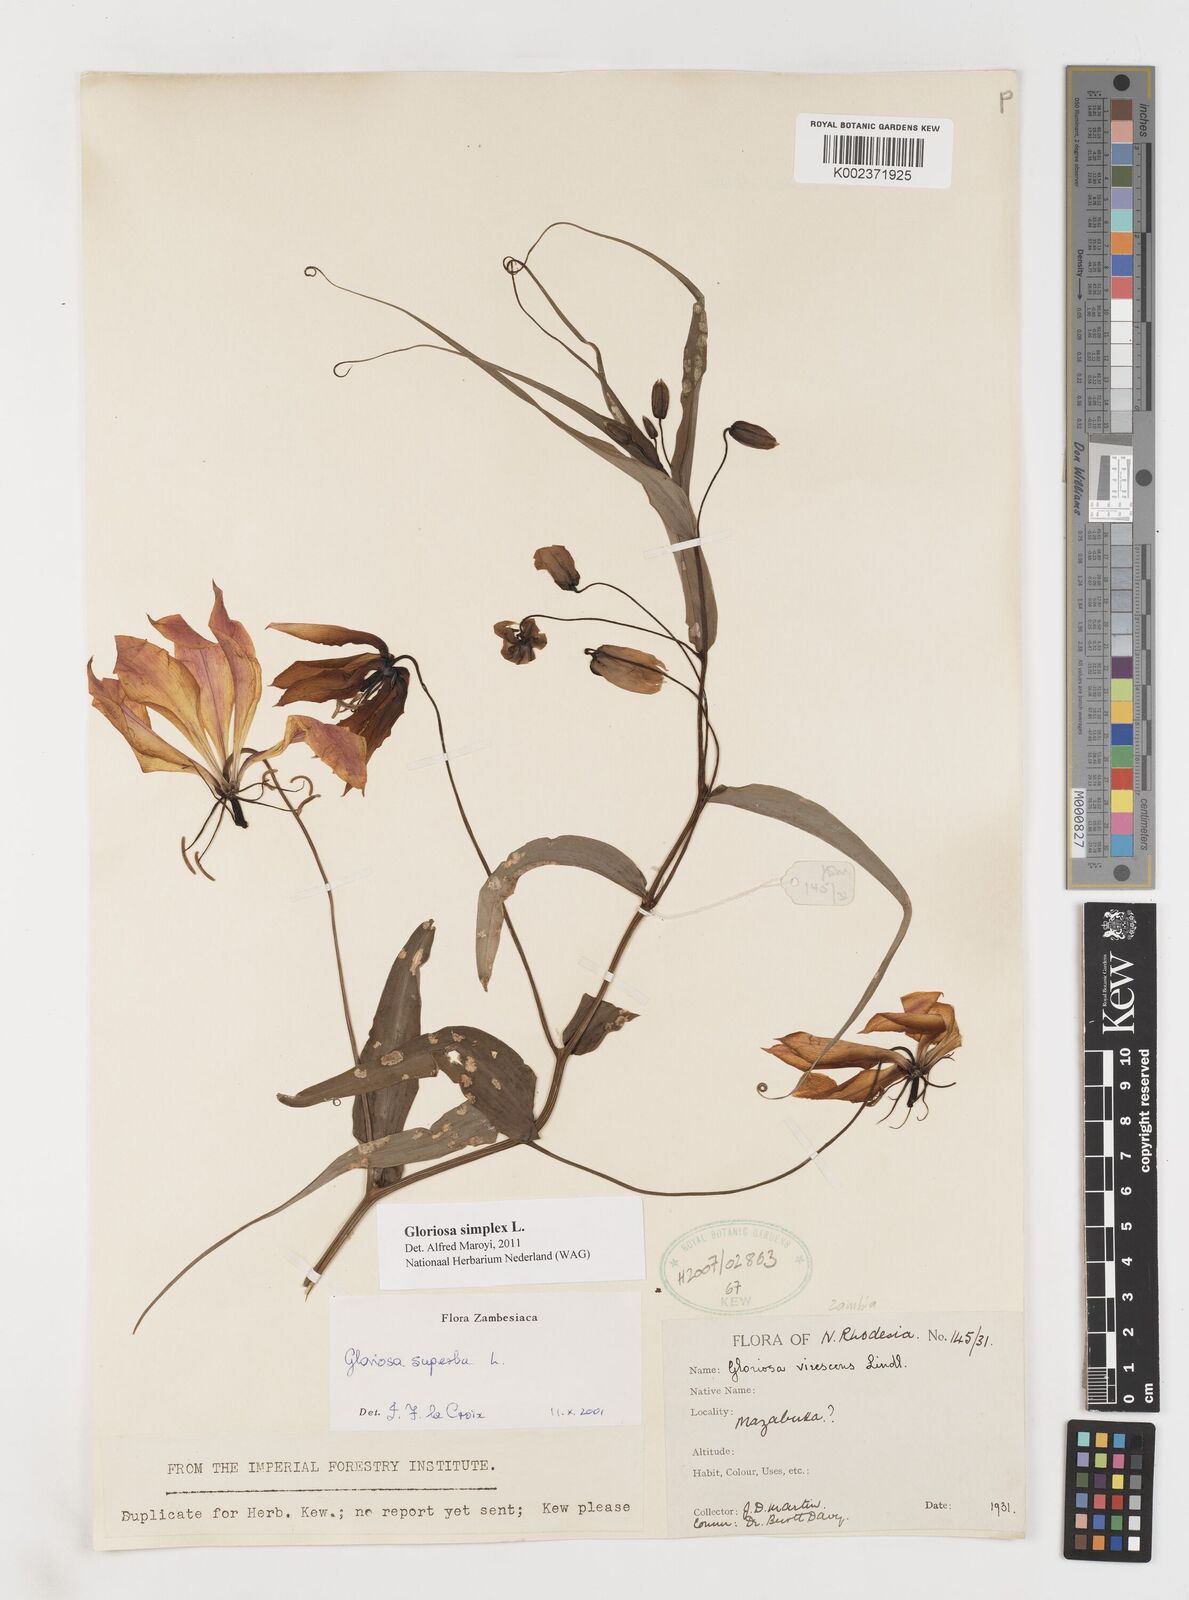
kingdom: Plantae
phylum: Tracheophyta
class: Liliopsida
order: Liliales
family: Colchicaceae
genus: Gloriosa
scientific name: Gloriosa simplex
